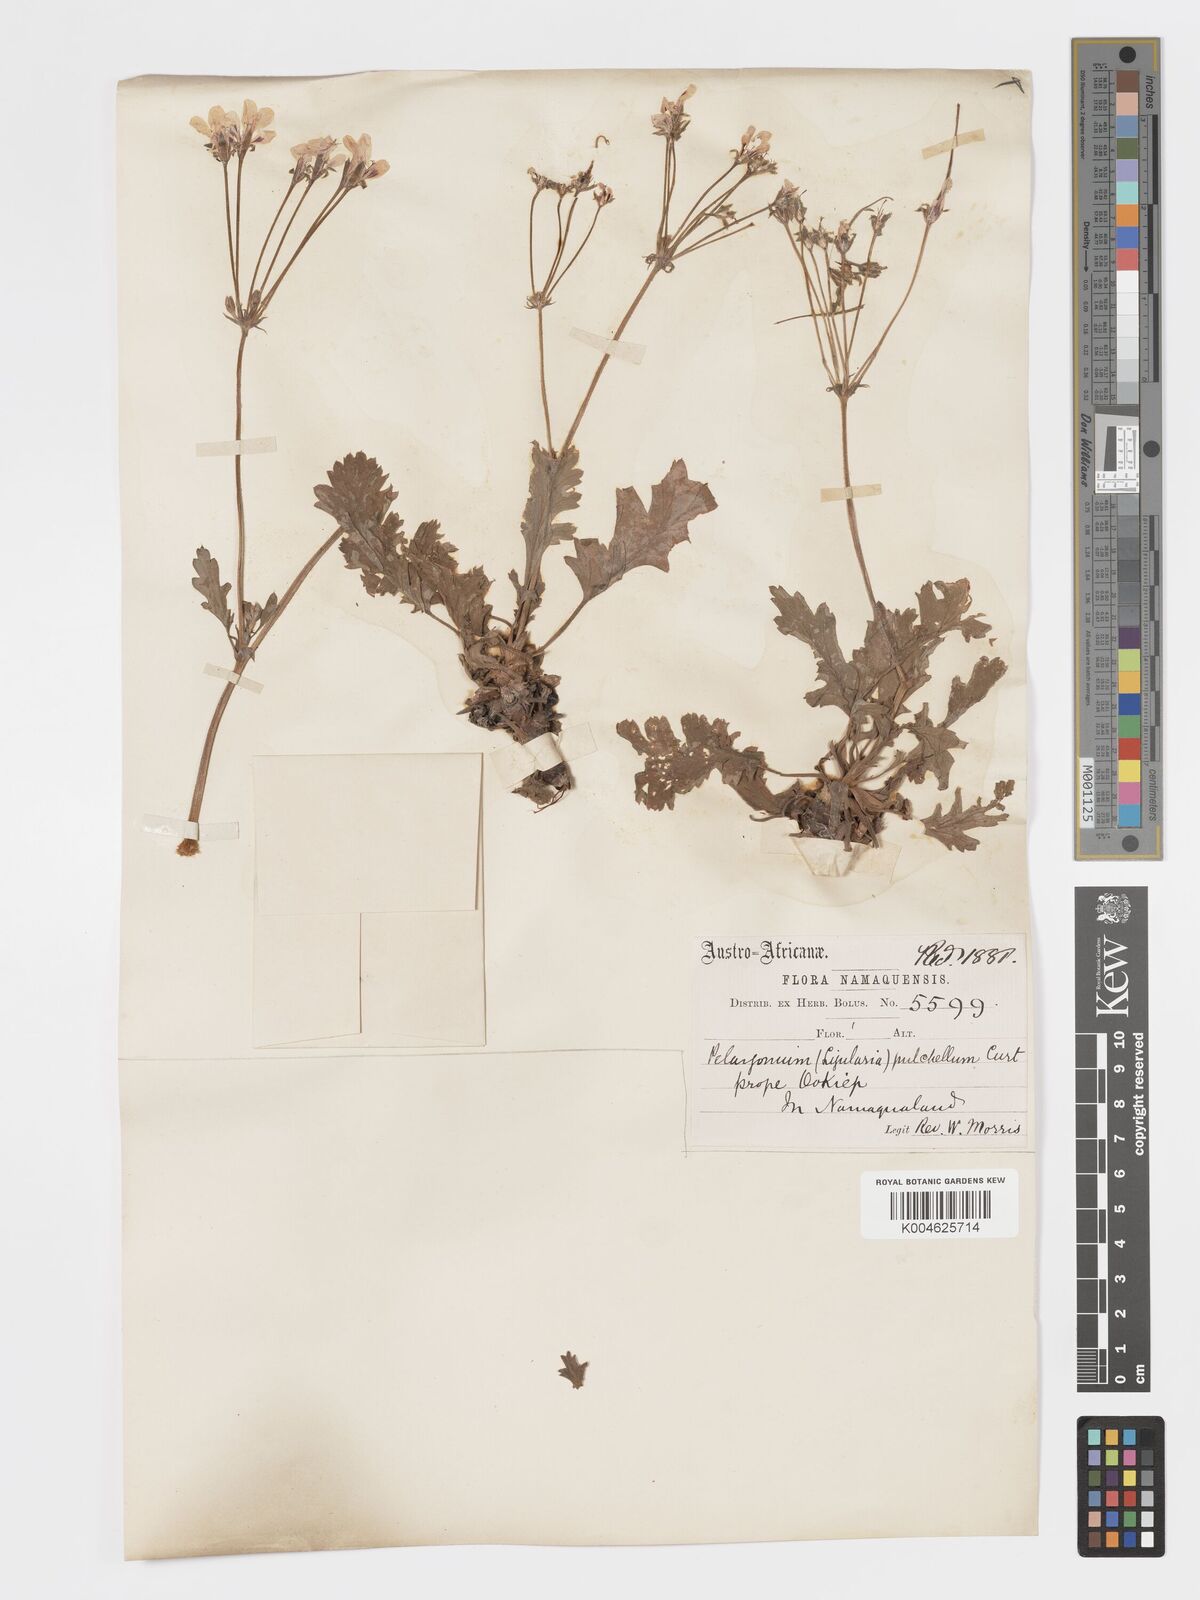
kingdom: Plantae
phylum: Tracheophyta
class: Magnoliopsida
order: Geraniales
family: Geraniaceae
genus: Pelargonium
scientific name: Pelargonium
